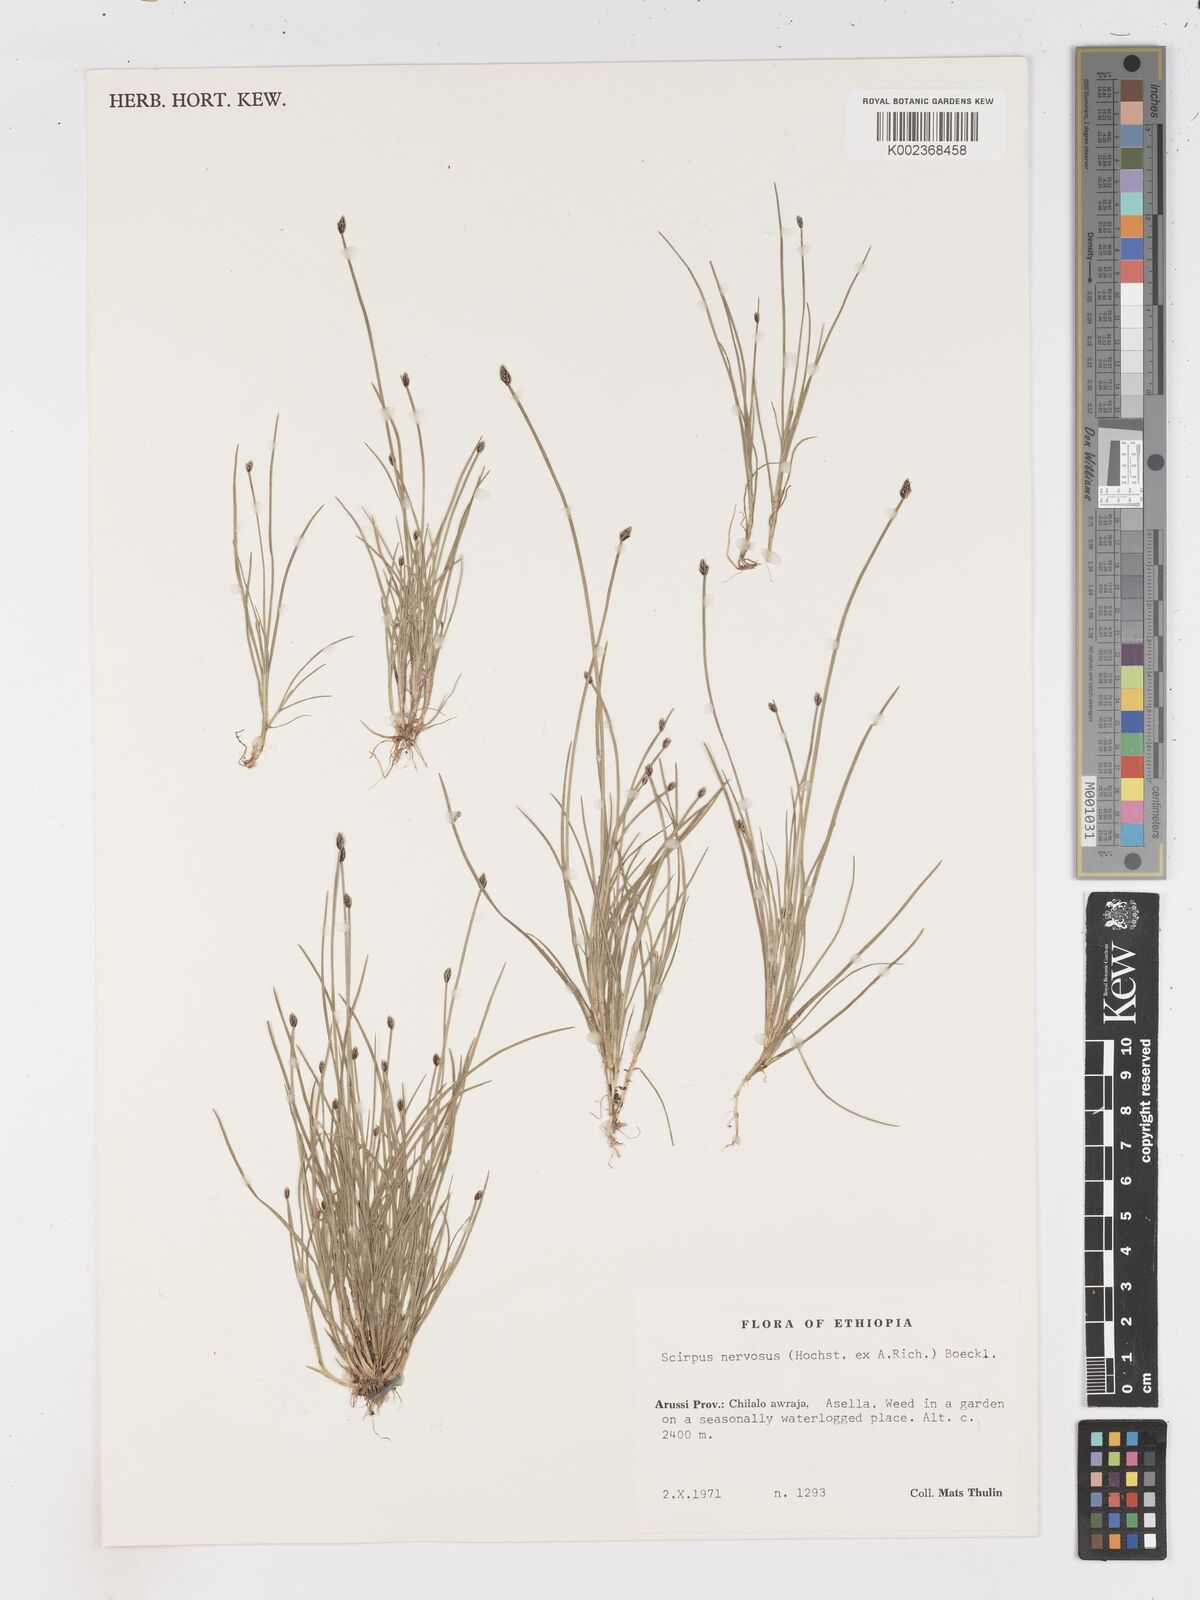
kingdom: Plantae
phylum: Tracheophyta
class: Liliopsida
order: Poales
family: Cyperaceae
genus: Isolepis
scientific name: Isolepis fluitans
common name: Floating club-rush
